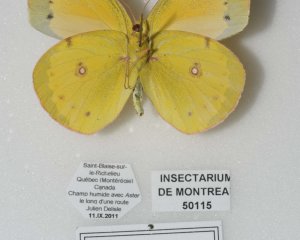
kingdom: Animalia
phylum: Arthropoda
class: Insecta
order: Lepidoptera
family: Pieridae
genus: Colias
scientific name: Colias eurytheme
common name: Orange Sulphur
